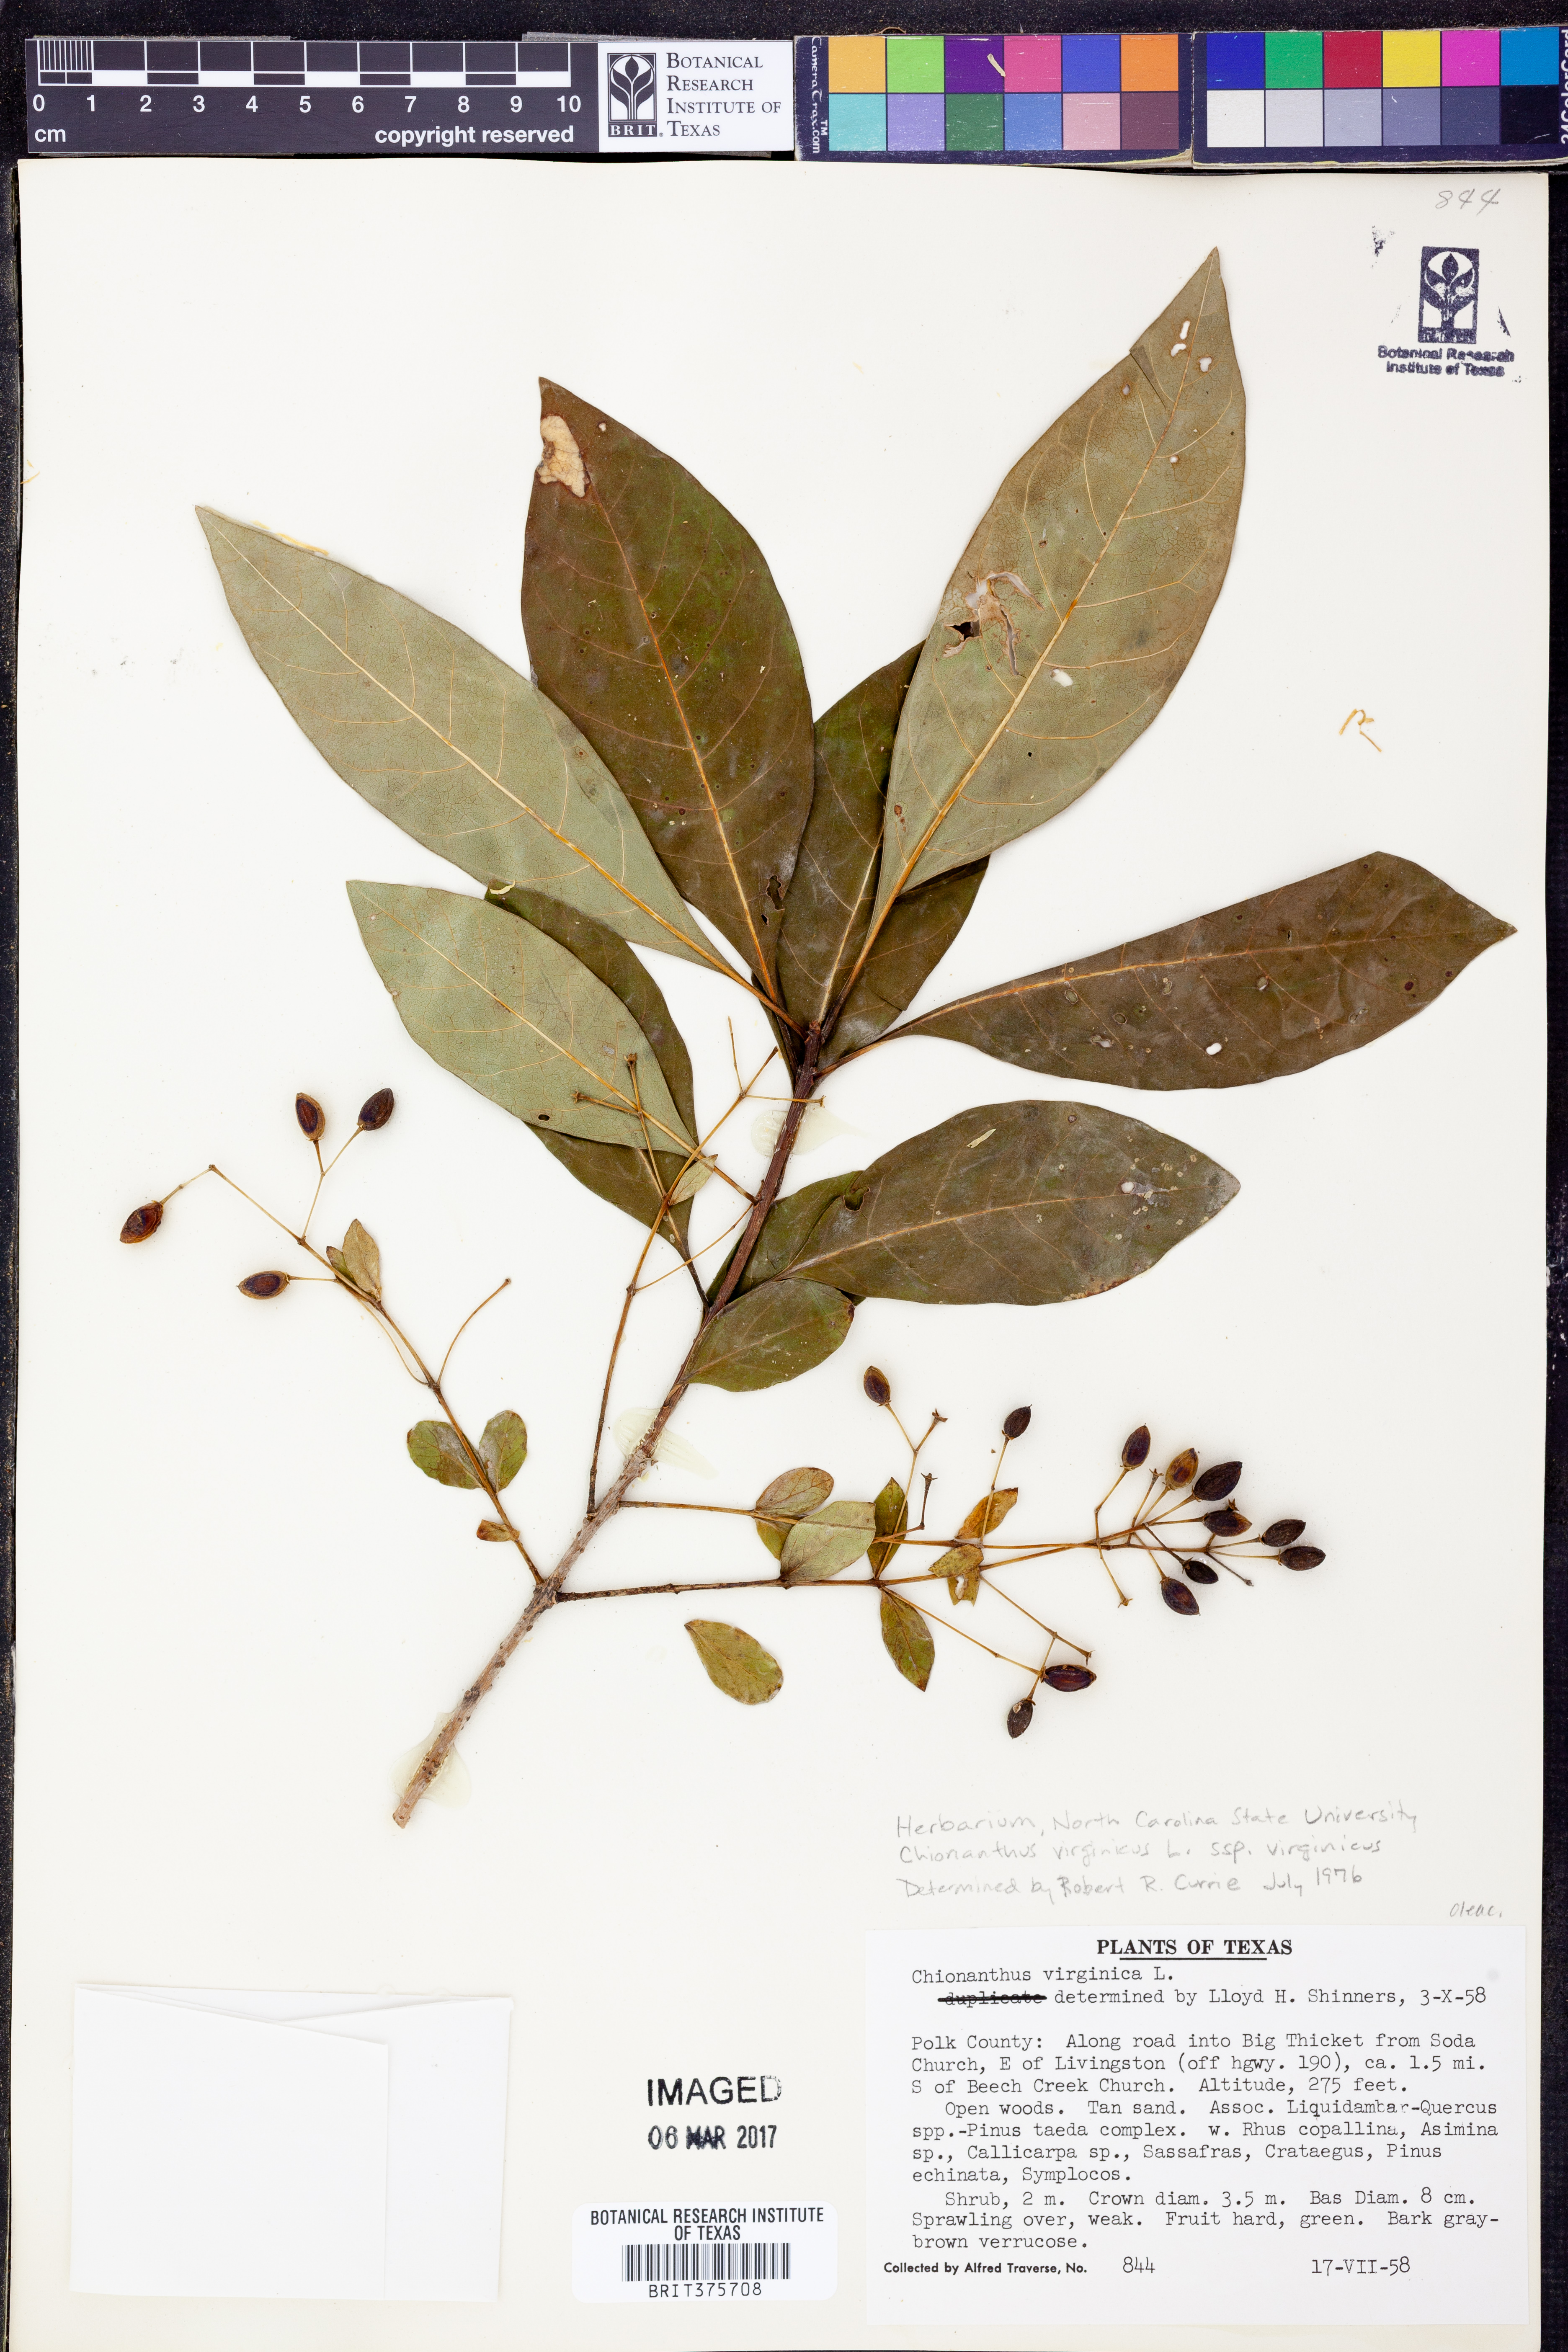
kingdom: Plantae
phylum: Tracheophyta
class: Magnoliopsida
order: Lamiales
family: Oleaceae
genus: Chionanthus
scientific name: Chionanthus virginicus
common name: American fringetree
